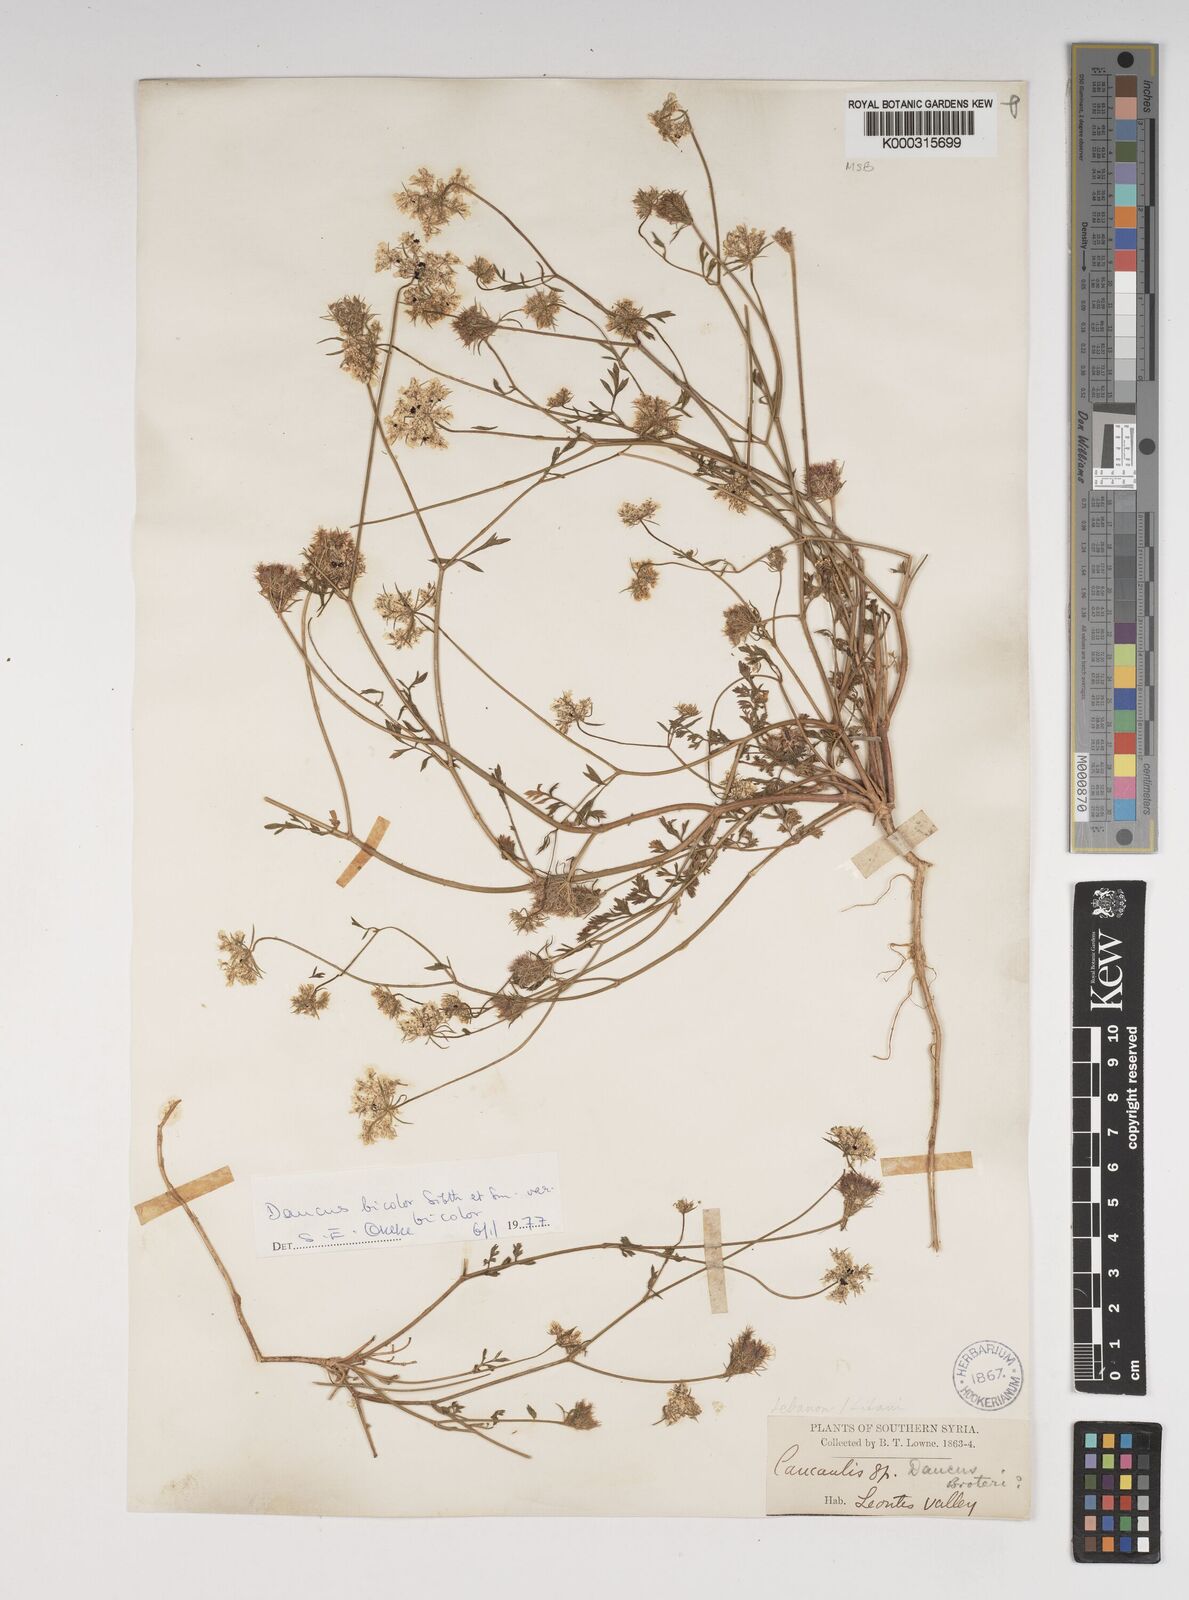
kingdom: Plantae
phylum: Tracheophyta
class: Magnoliopsida
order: Apiales
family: Apiaceae
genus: Daucus
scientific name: Daucus
